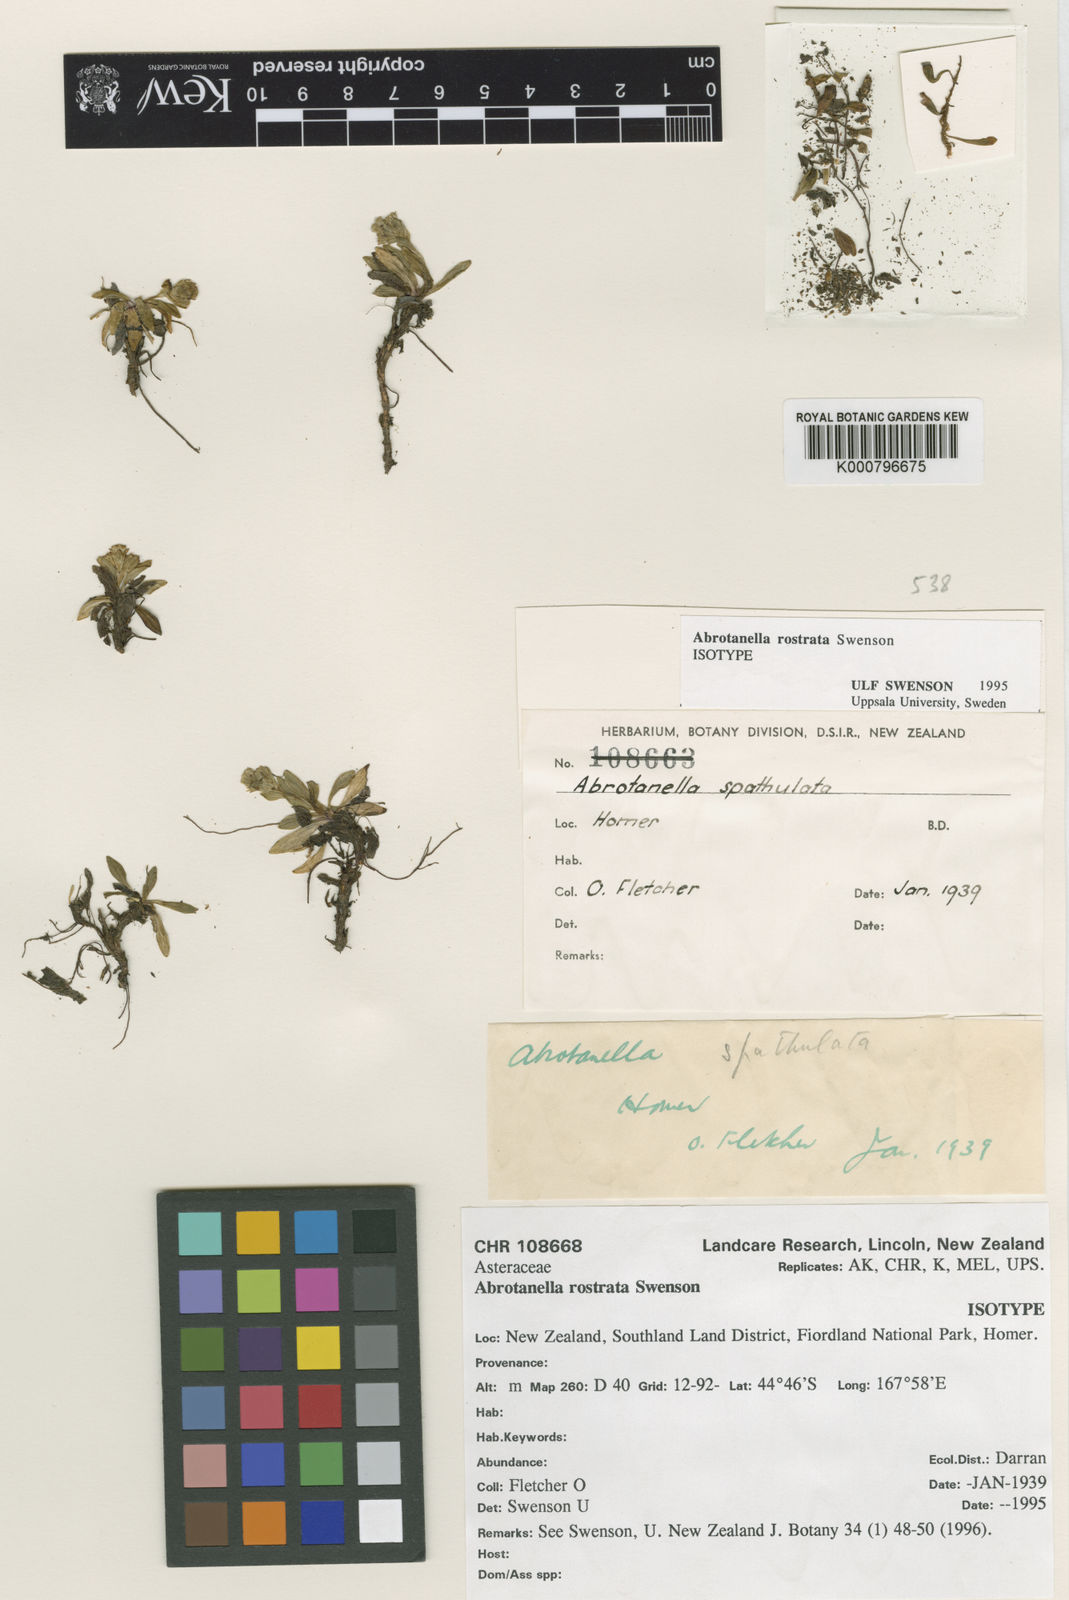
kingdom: Plantae
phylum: Tracheophyta
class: Magnoliopsida
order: Asterales
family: Asteraceae
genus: Abrotanella
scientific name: Abrotanella rostrata
